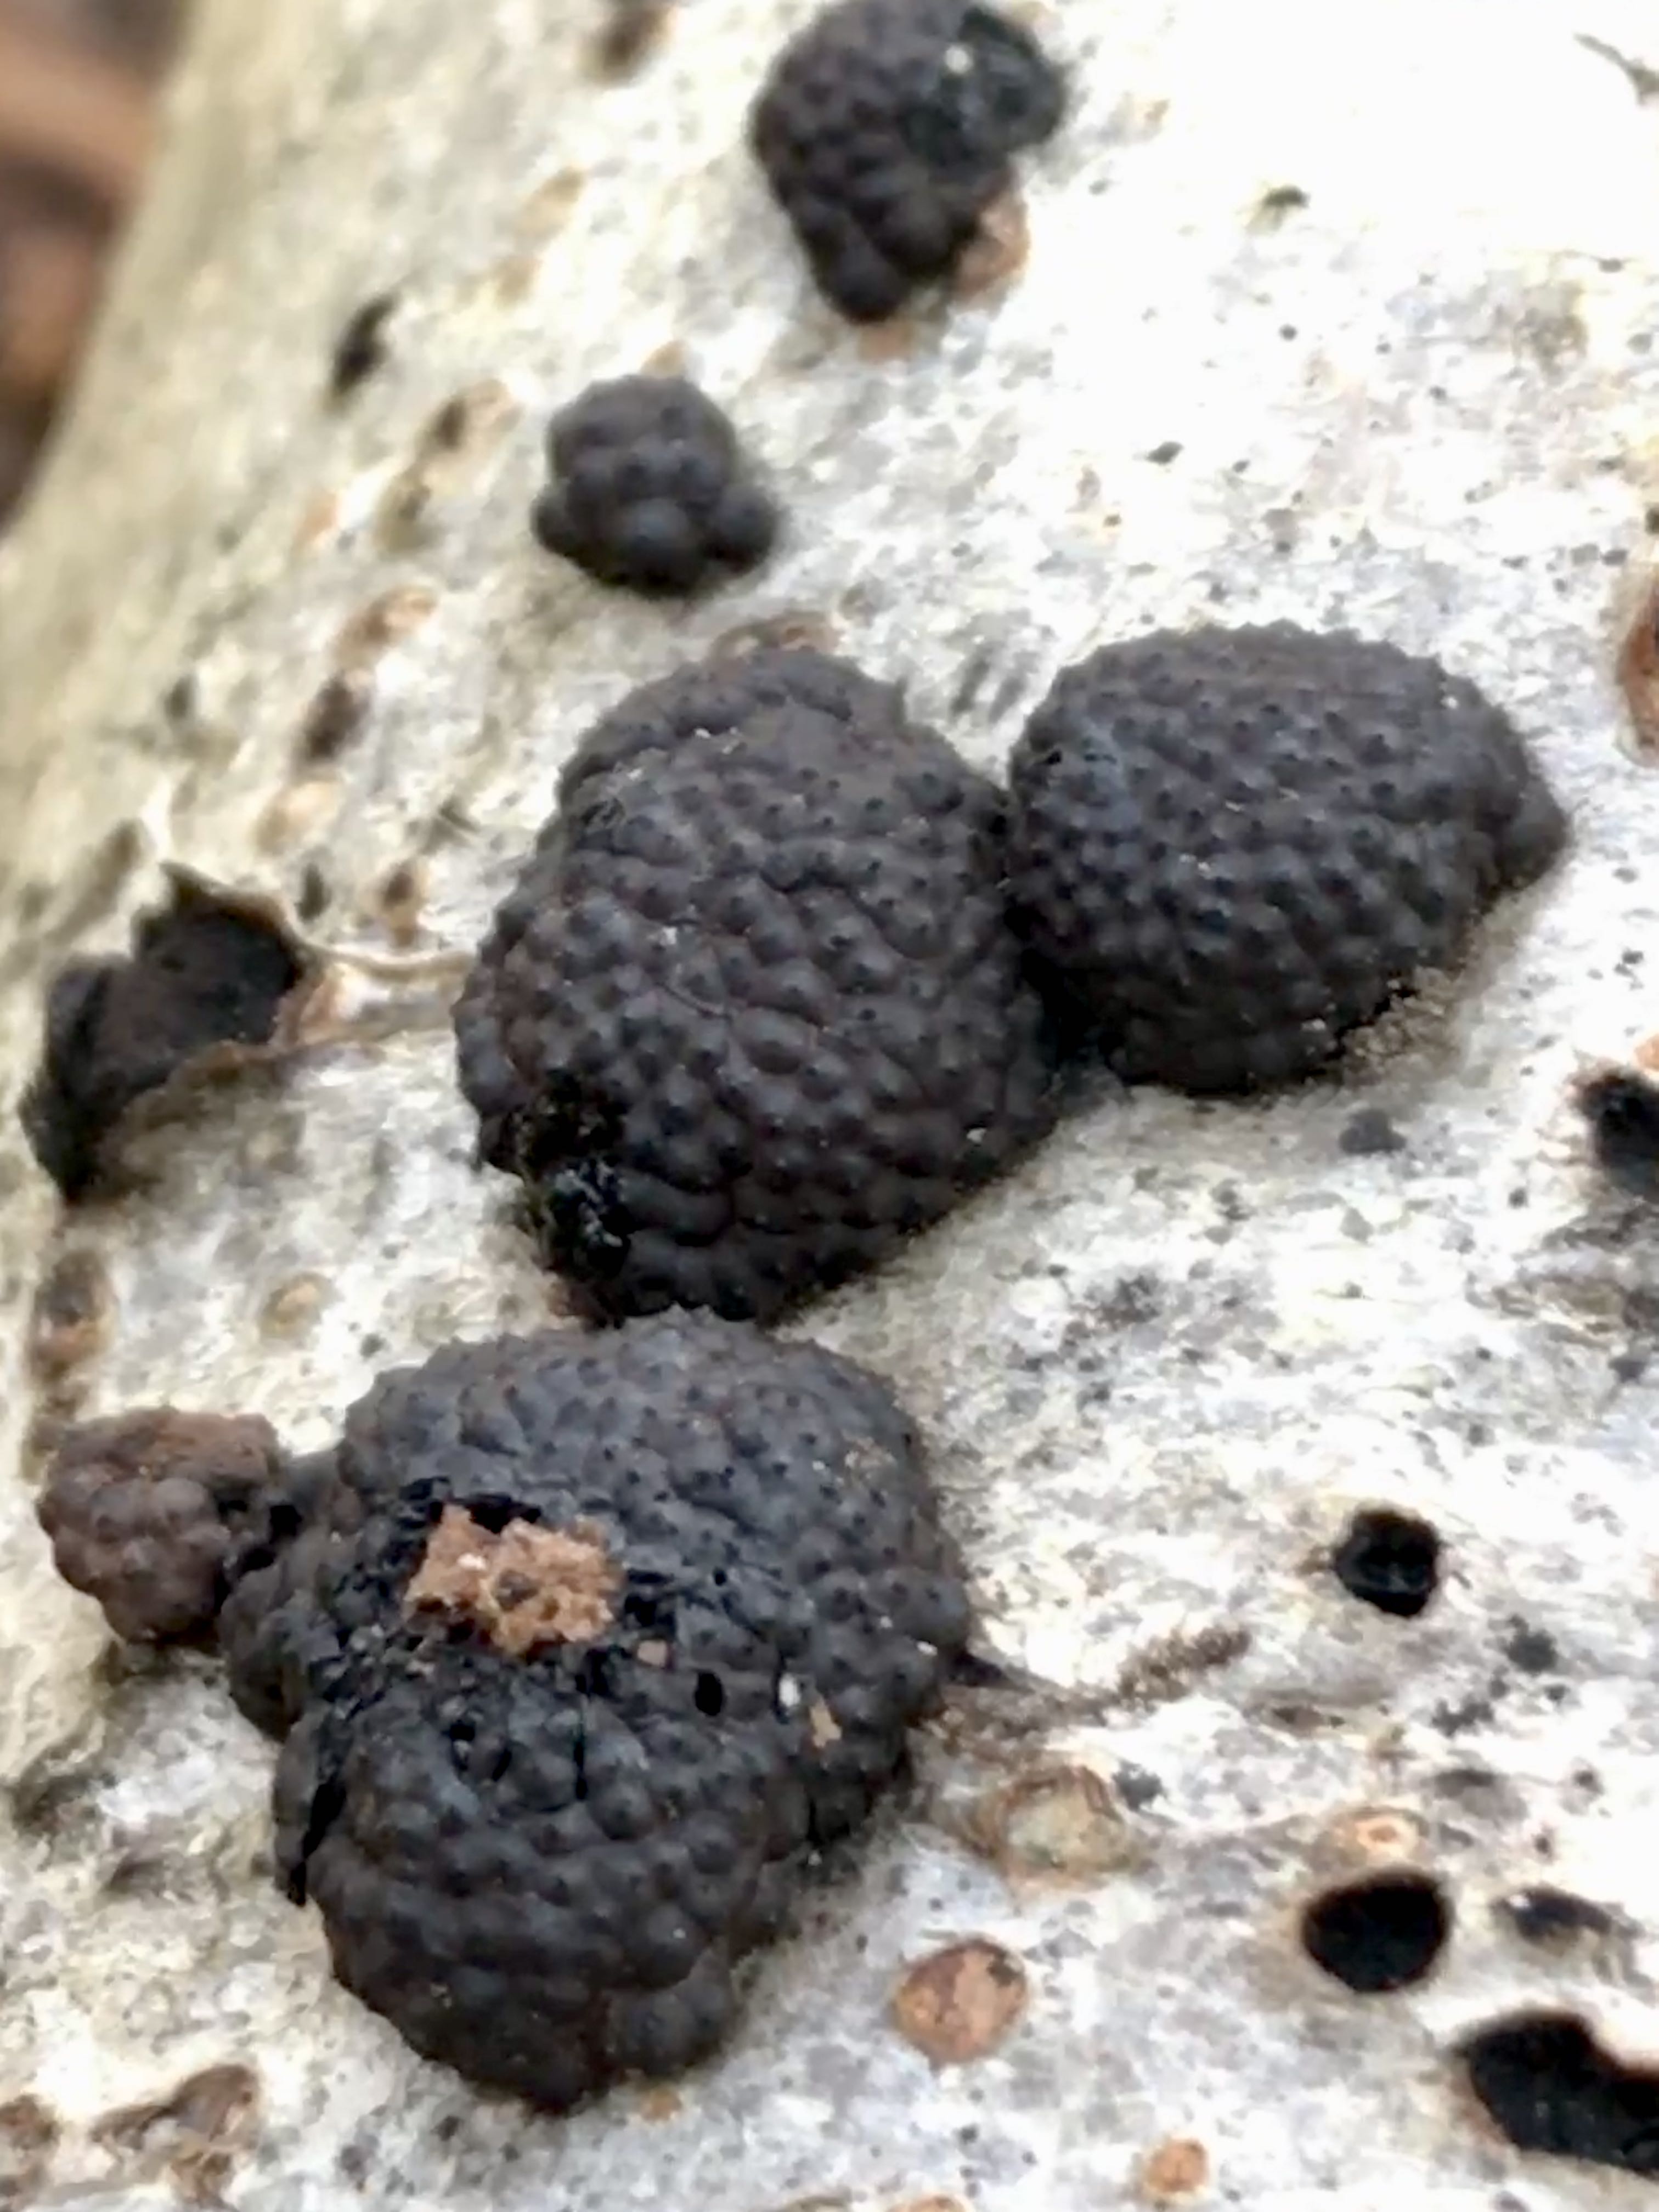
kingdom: Fungi
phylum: Ascomycota
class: Sordariomycetes
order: Xylariales
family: Hypoxylaceae
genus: Jackrogersella
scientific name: Jackrogersella multiformis
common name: foranderlig kulbær
